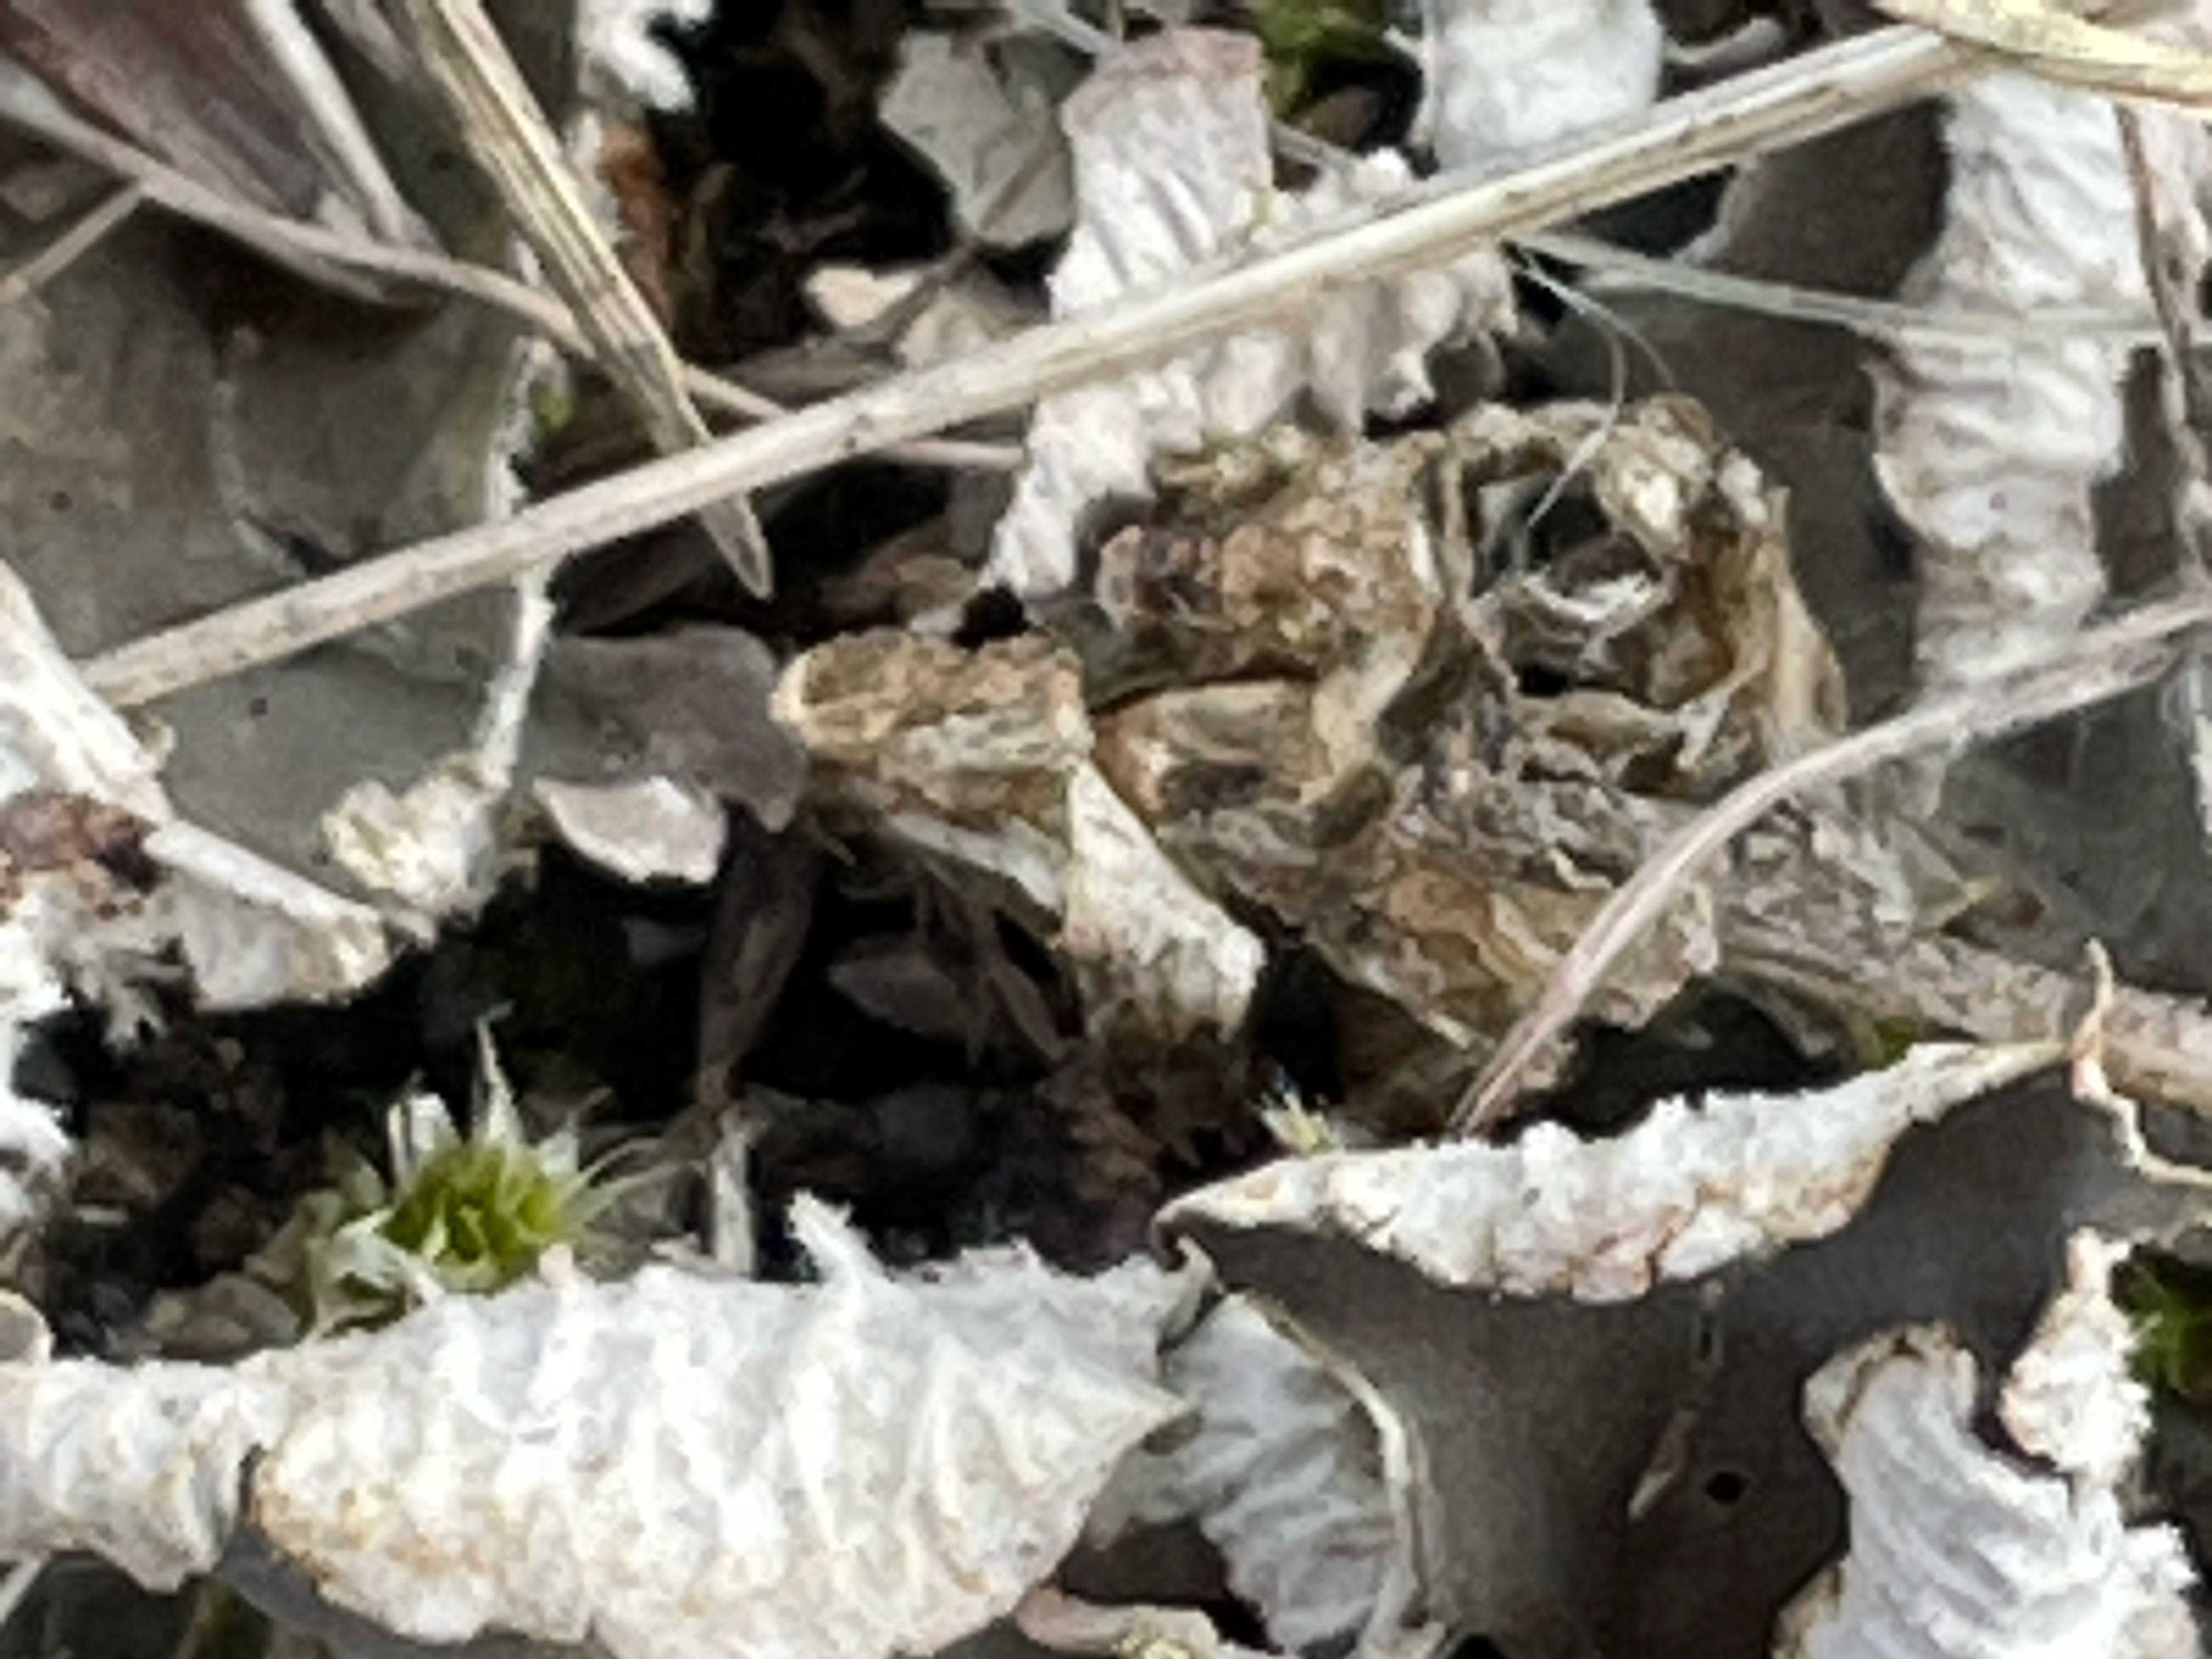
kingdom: Fungi
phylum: Ascomycota
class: Lecanoromycetes
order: Peltigerales
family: Peltigeraceae
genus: Peltigera
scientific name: Peltigera
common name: skjoldlav
